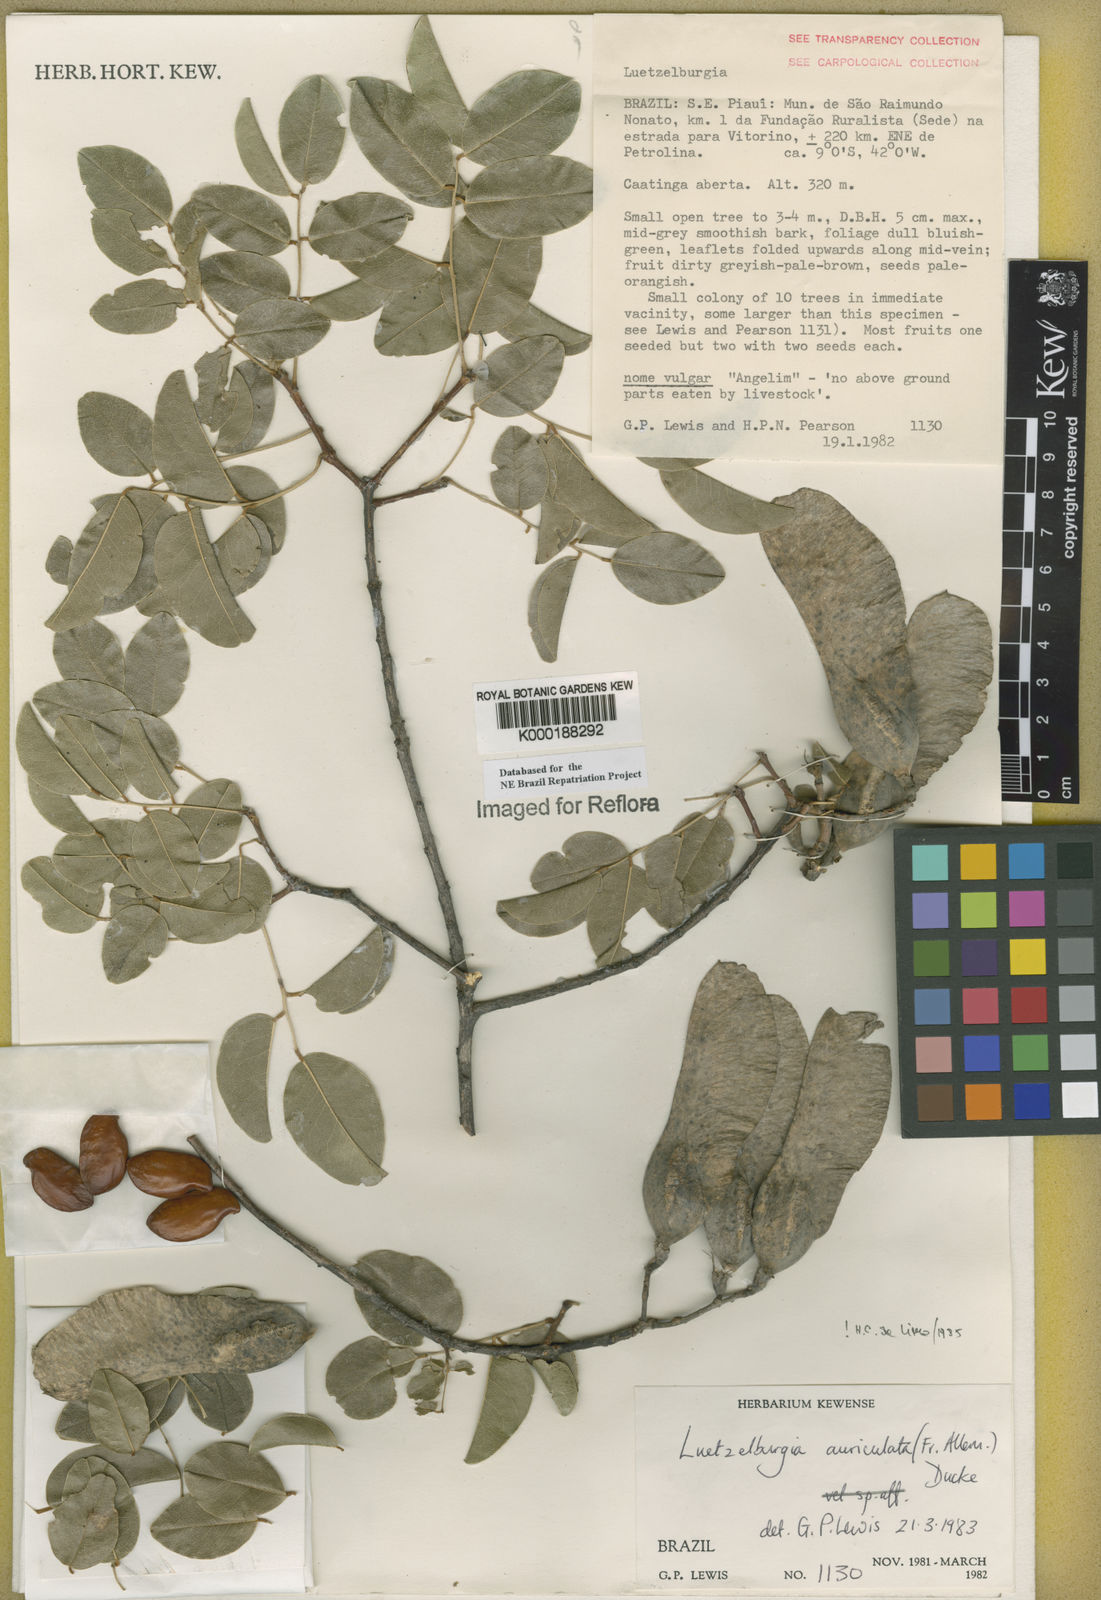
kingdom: Plantae
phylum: Tracheophyta
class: Magnoliopsida
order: Fabales
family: Fabaceae
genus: Luetzelburgia
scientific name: Luetzelburgia auriculata
